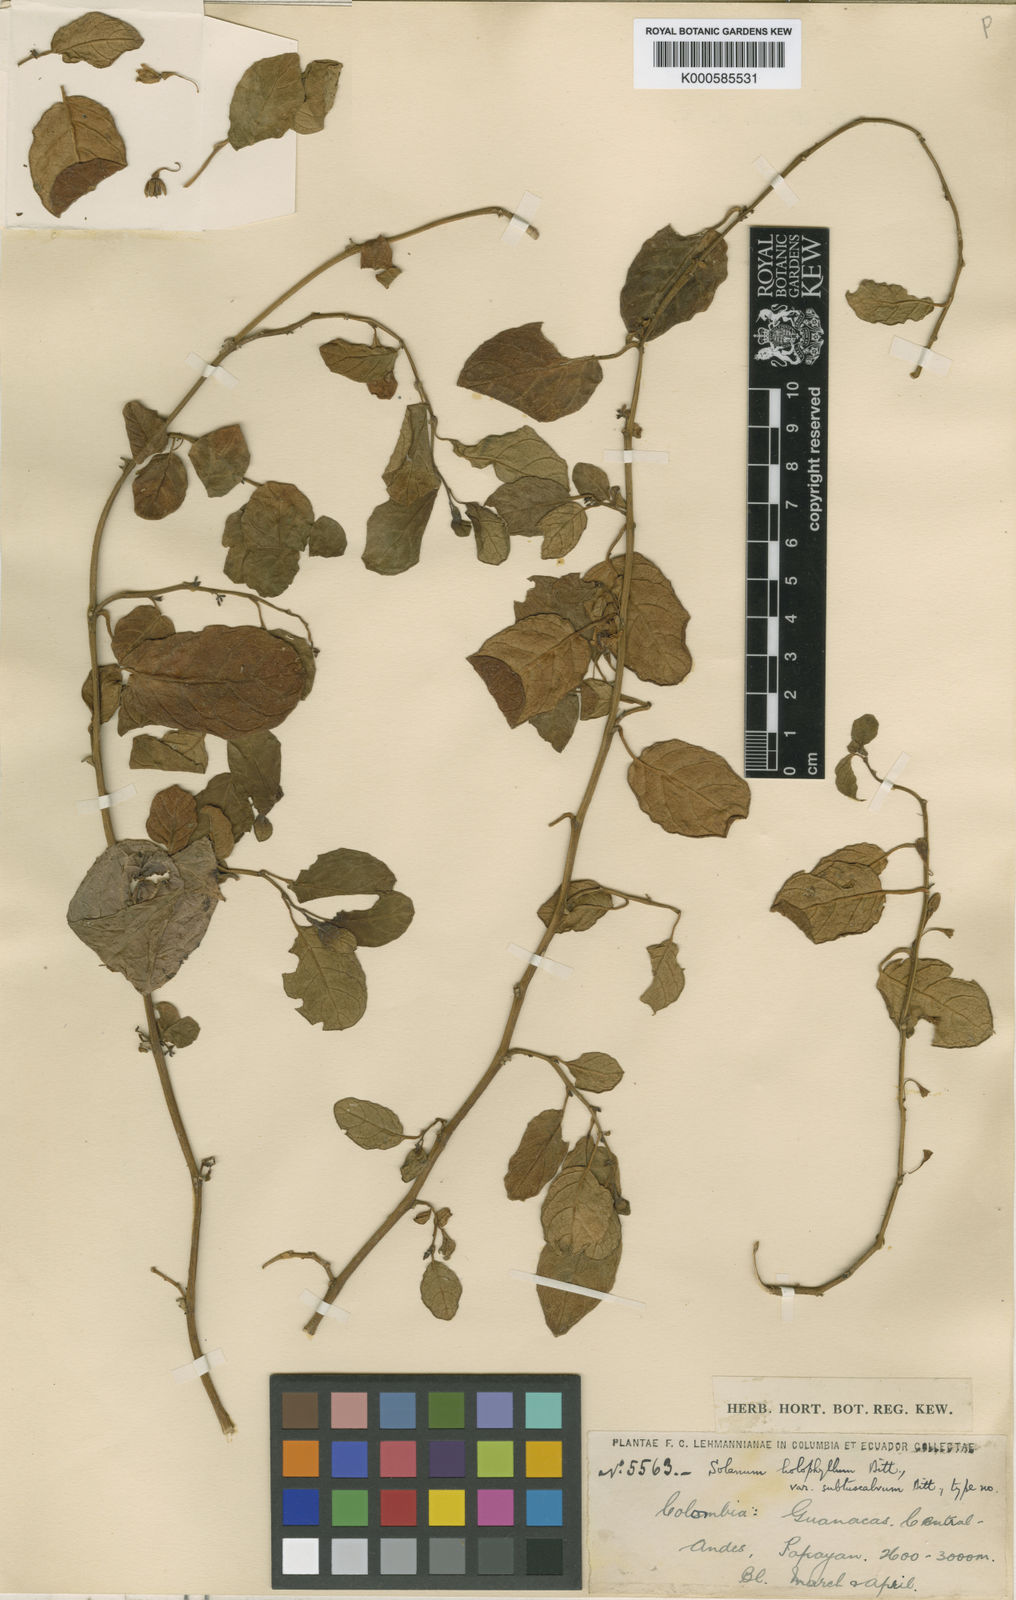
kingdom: Plantae
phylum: Tracheophyta
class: Magnoliopsida
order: Solanales
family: Solanaceae
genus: Solanum
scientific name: Solanum brevifolium
